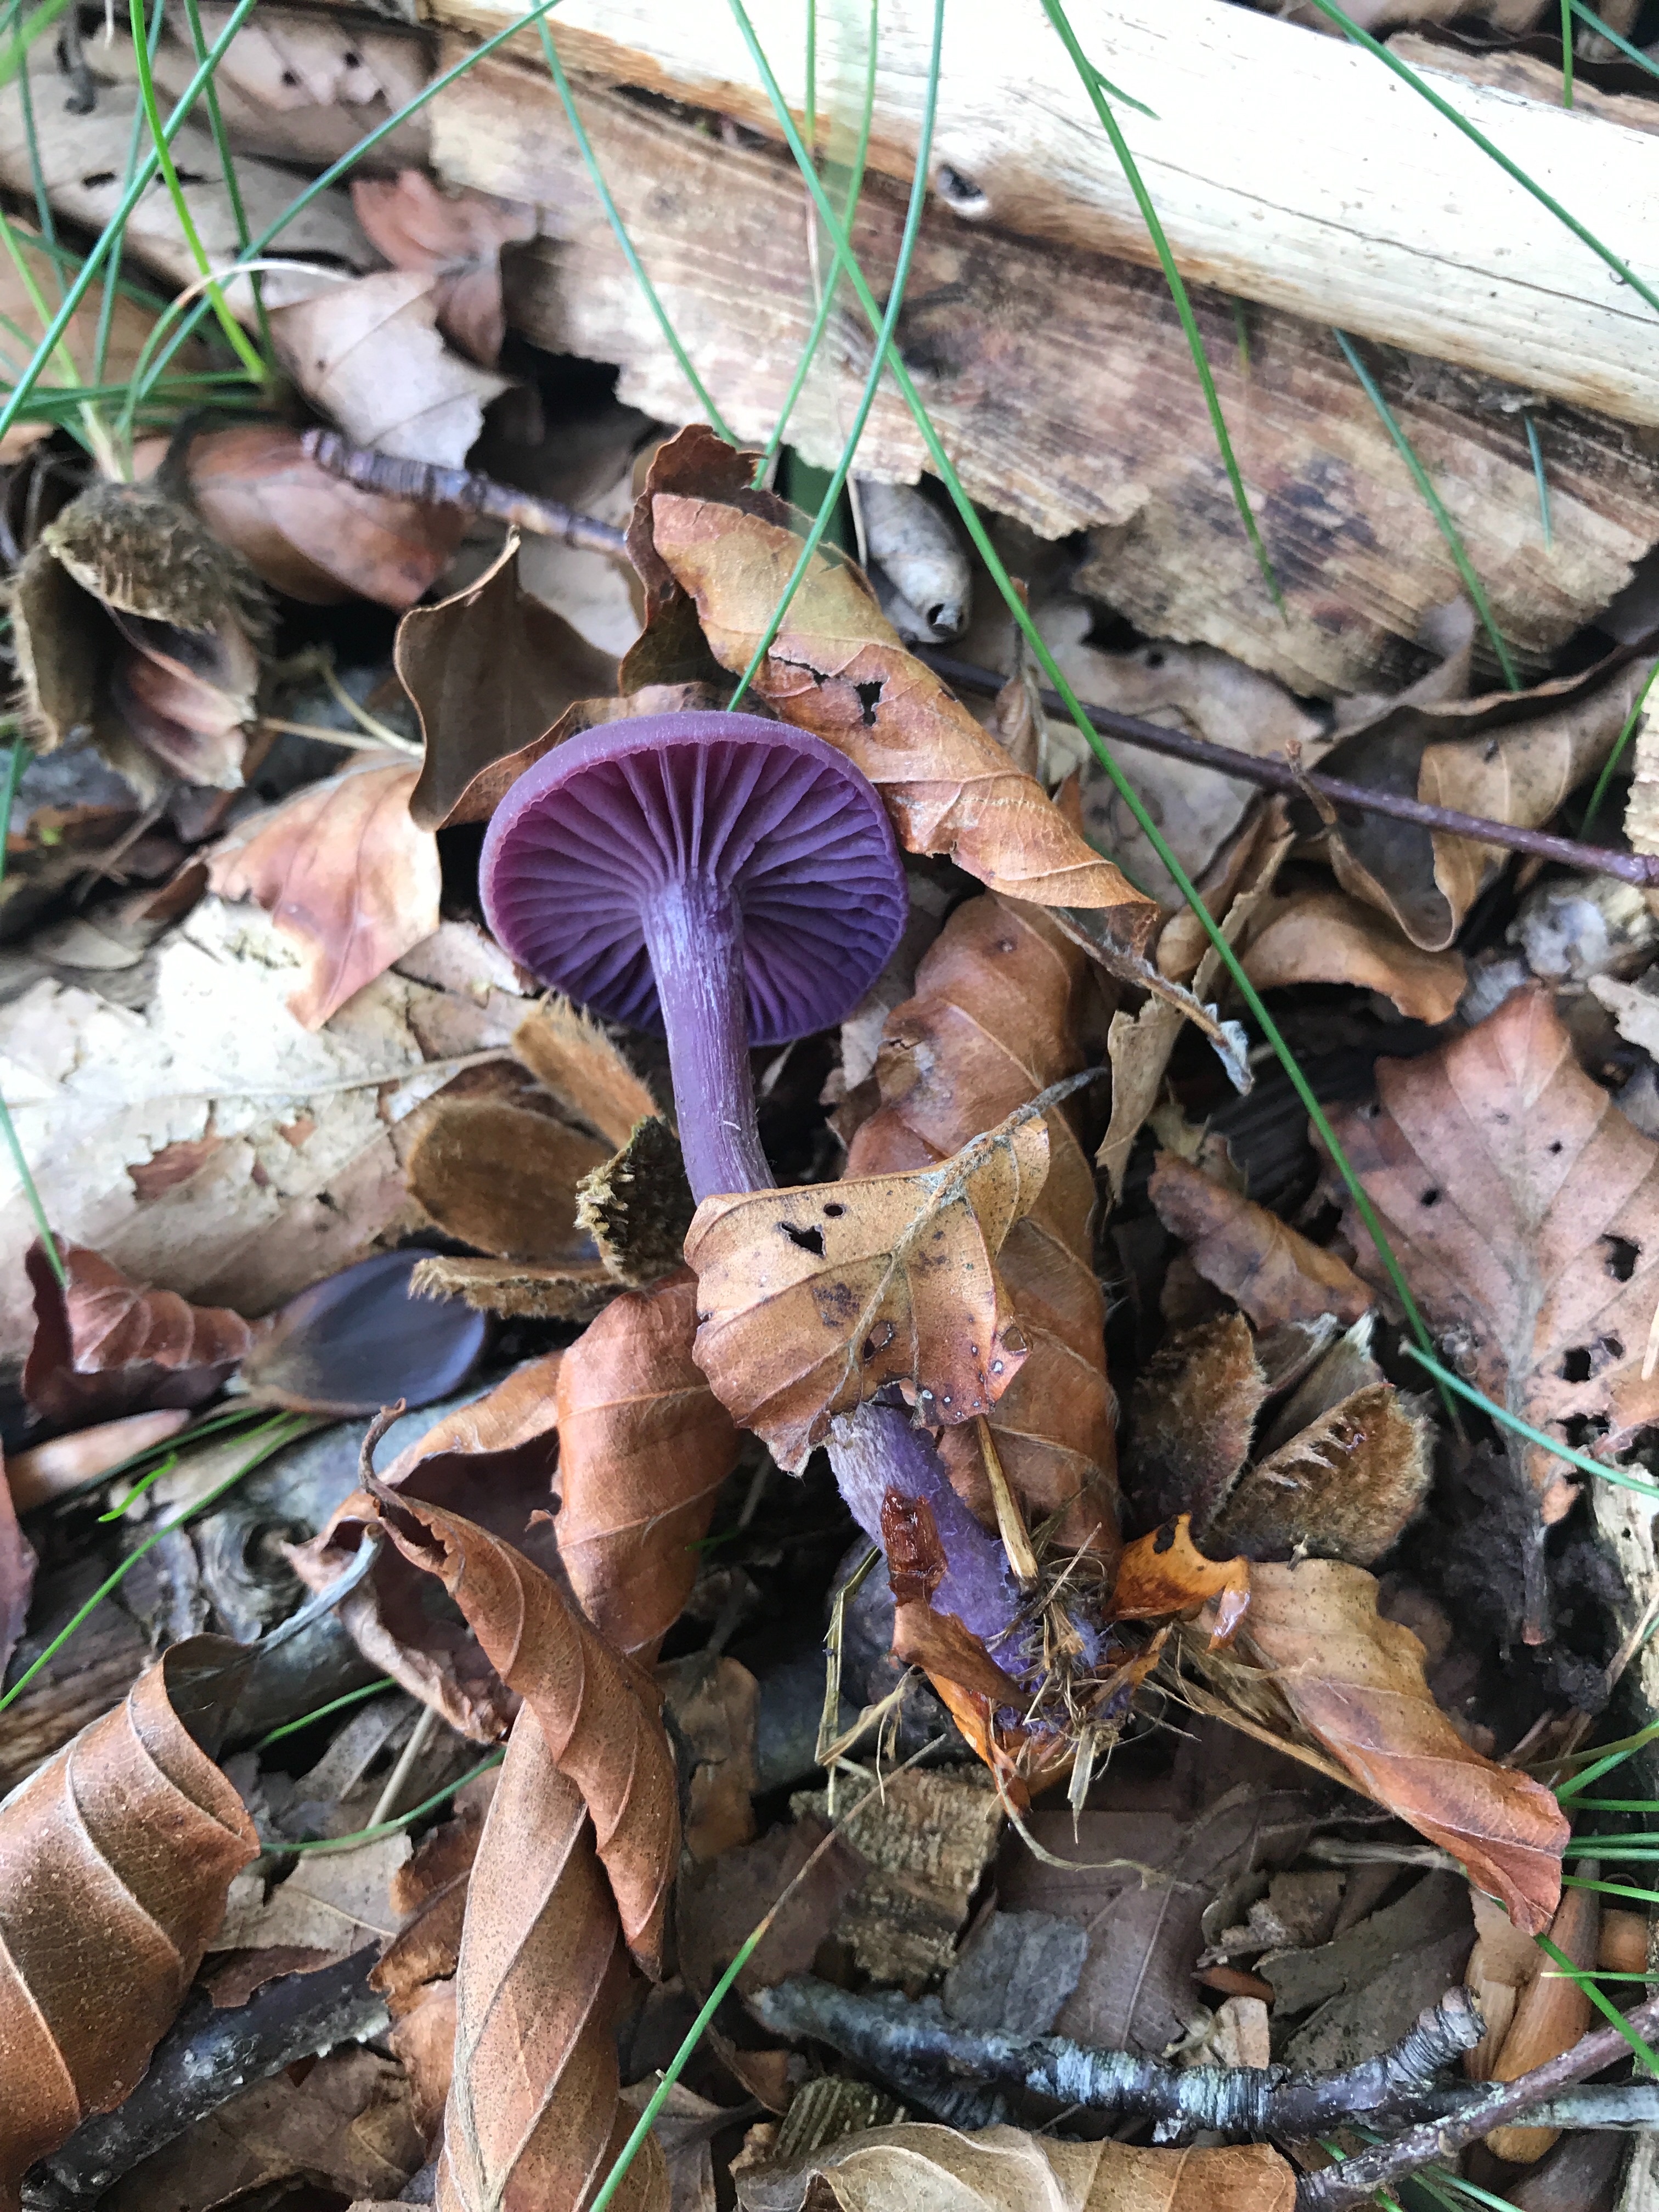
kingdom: Fungi
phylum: Basidiomycota
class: Agaricomycetes
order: Agaricales
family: Hydnangiaceae
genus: Laccaria
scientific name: Laccaria amethystina
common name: violet ametysthat
